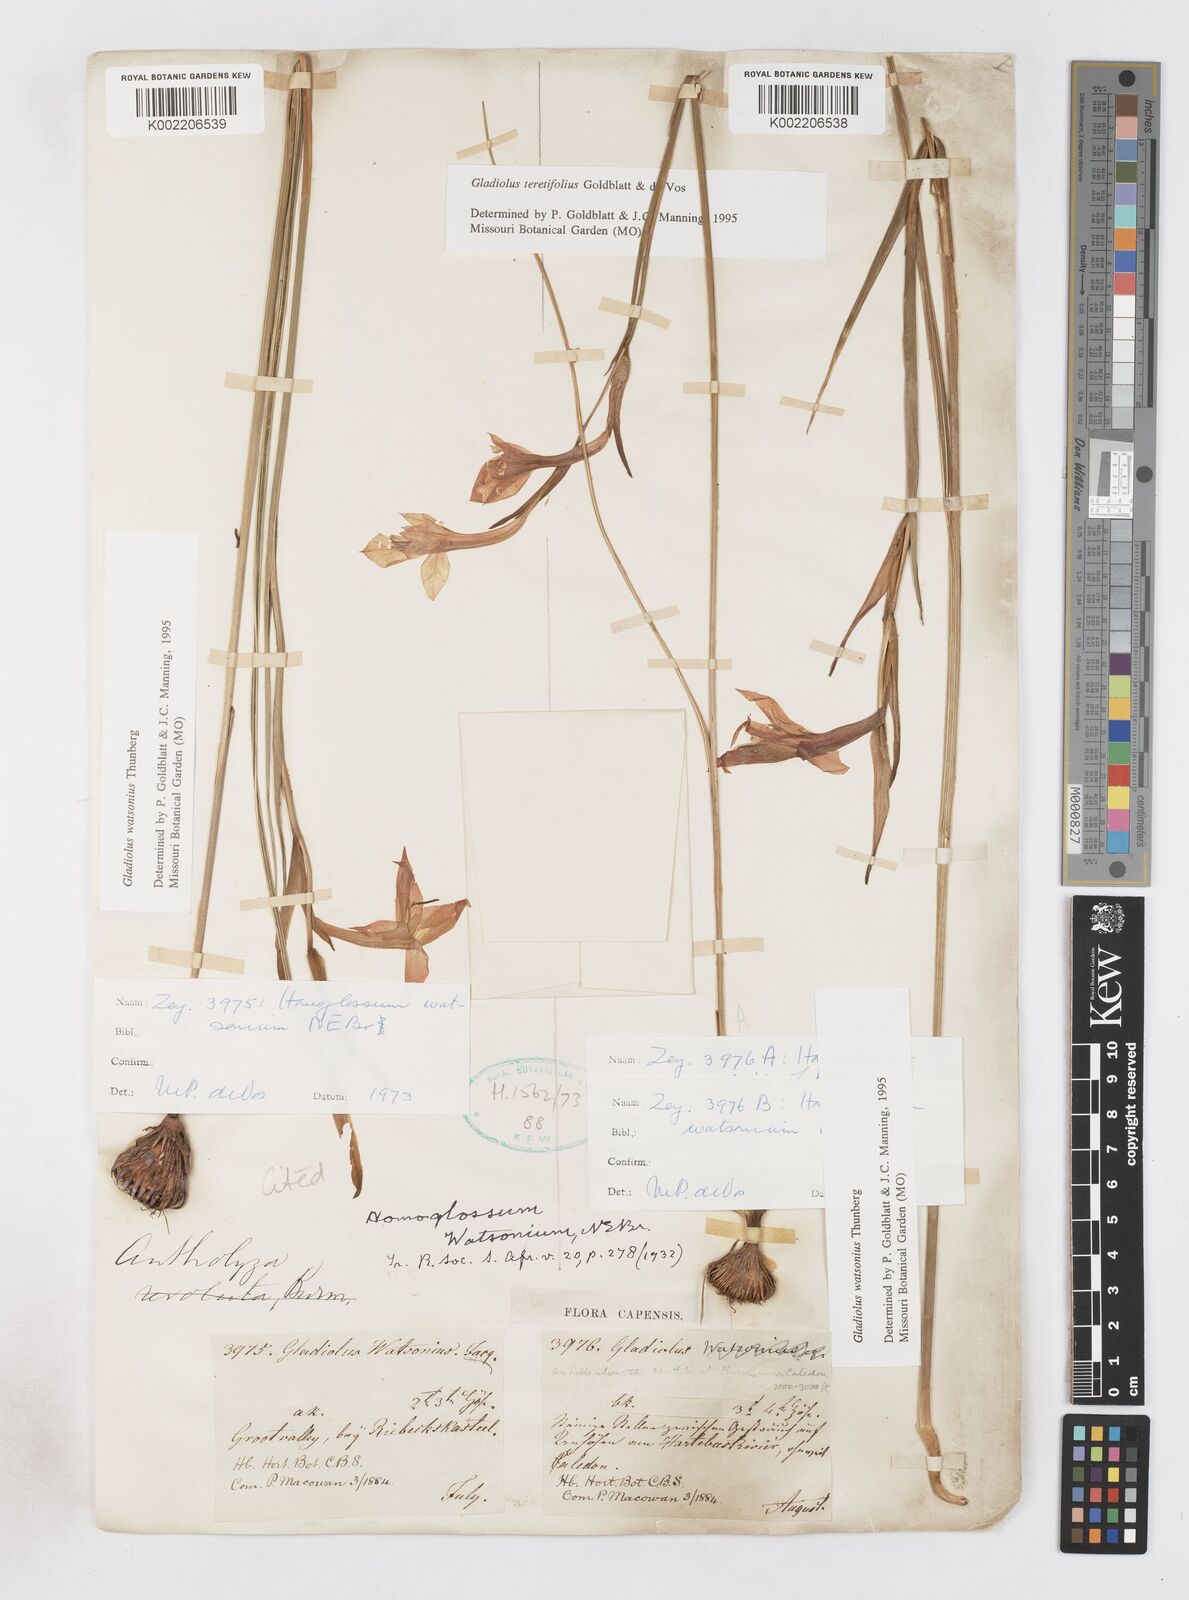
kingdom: Plantae
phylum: Tracheophyta
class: Liliopsida
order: Asparagales
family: Iridaceae
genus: Gladiolus
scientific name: Gladiolus involutus
